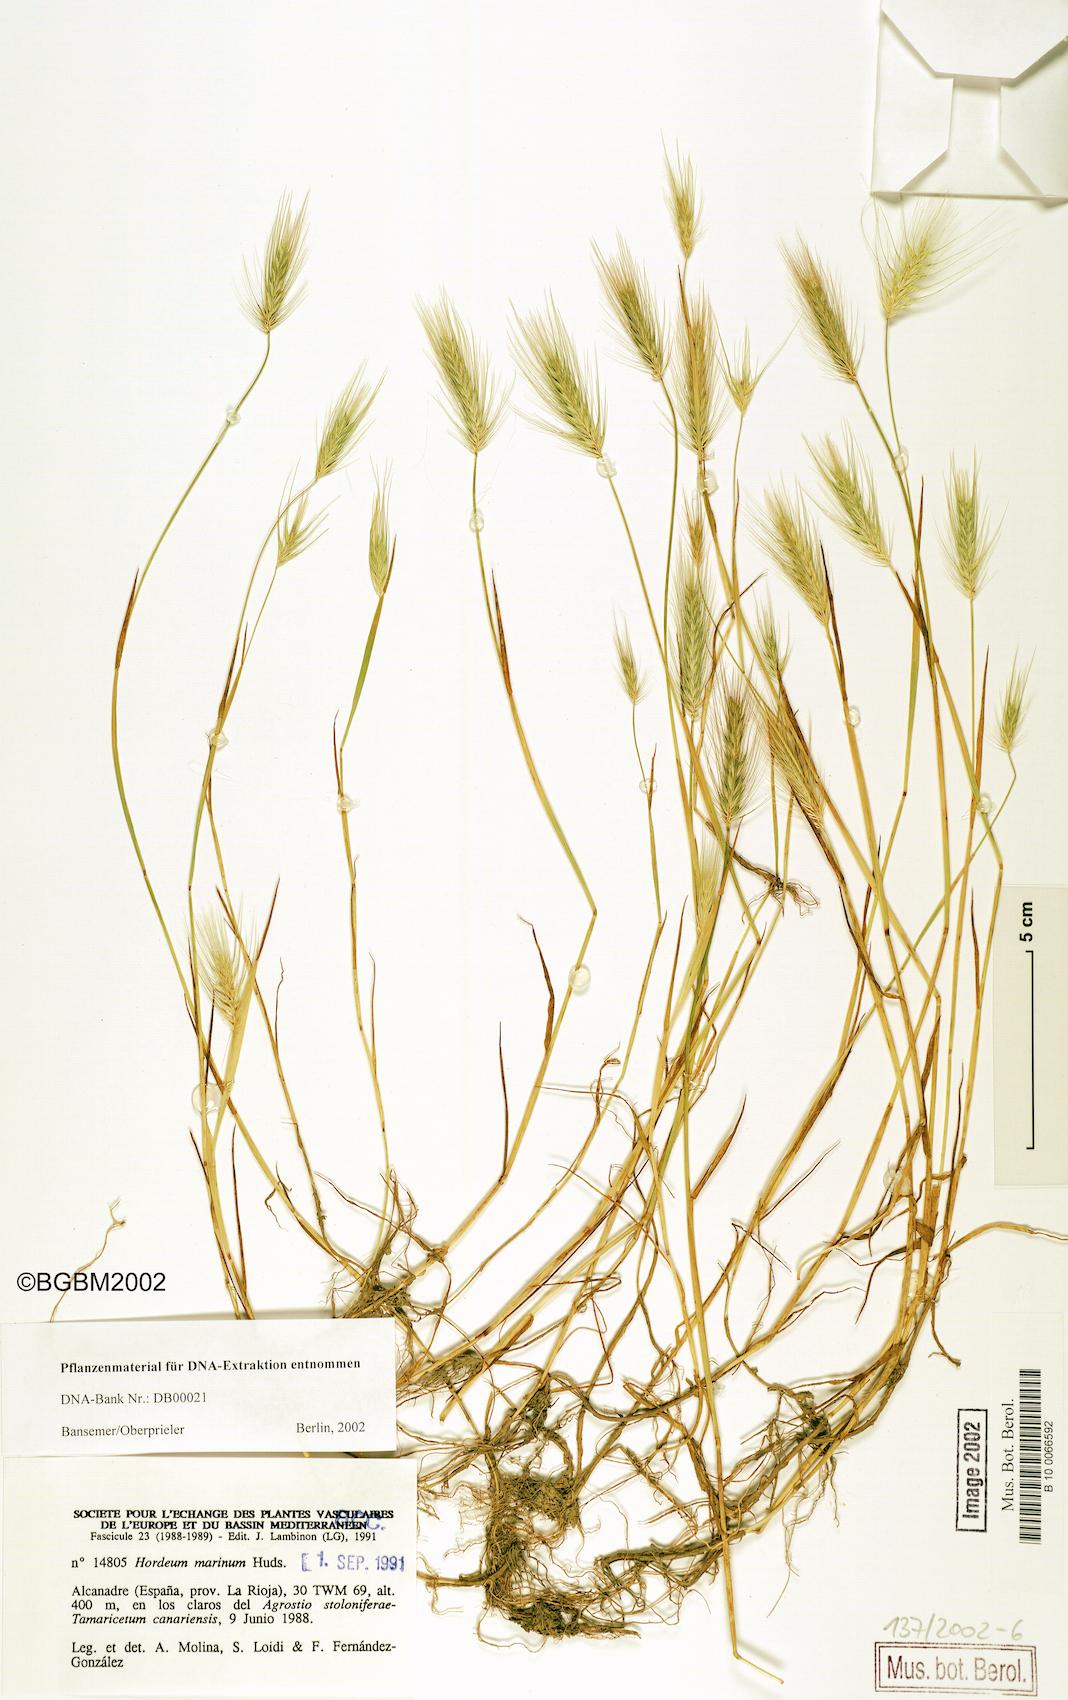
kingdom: Plantae
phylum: Tracheophyta
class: Liliopsida
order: Poales
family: Poaceae
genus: Hordeum
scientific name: Hordeum marinum
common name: Sea barley
